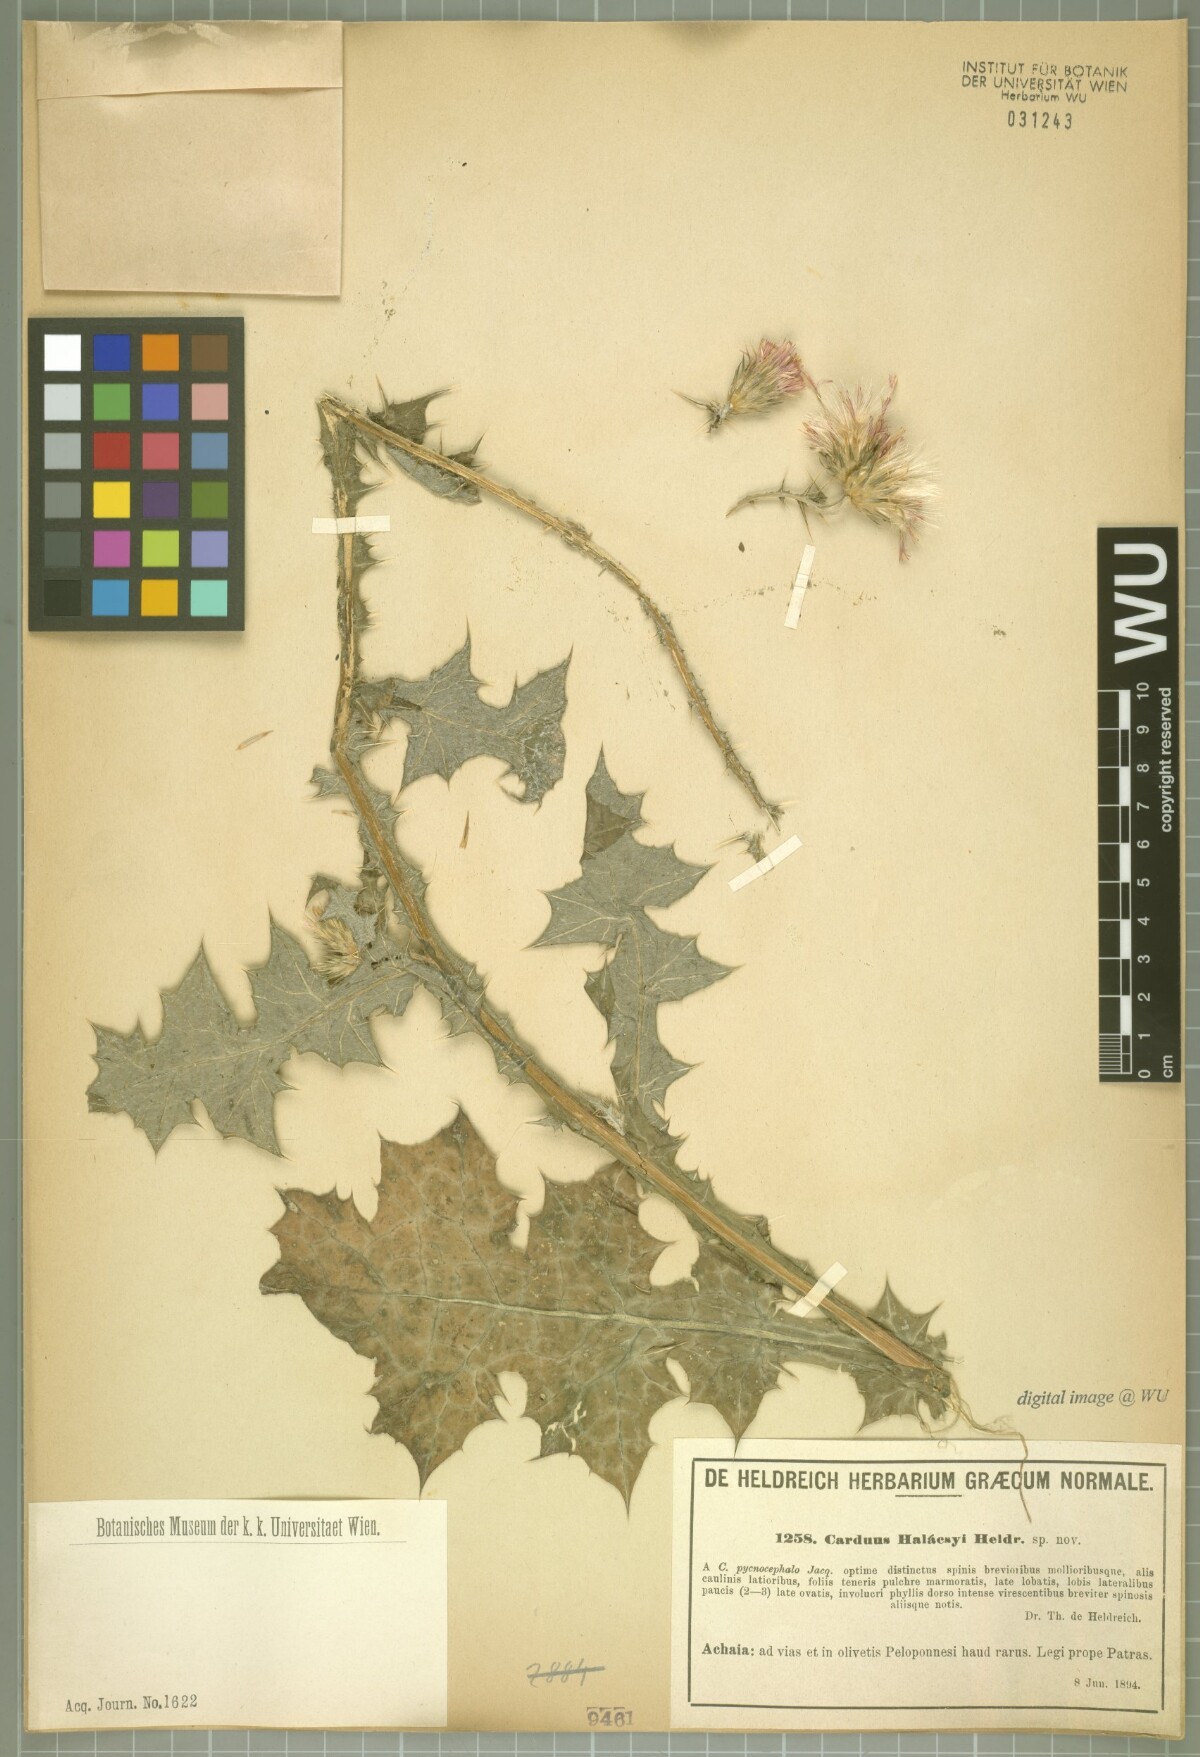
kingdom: Plantae
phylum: Tracheophyta
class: Magnoliopsida
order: Asterales
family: Asteraceae
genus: Carduus
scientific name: Carduus arabicus
